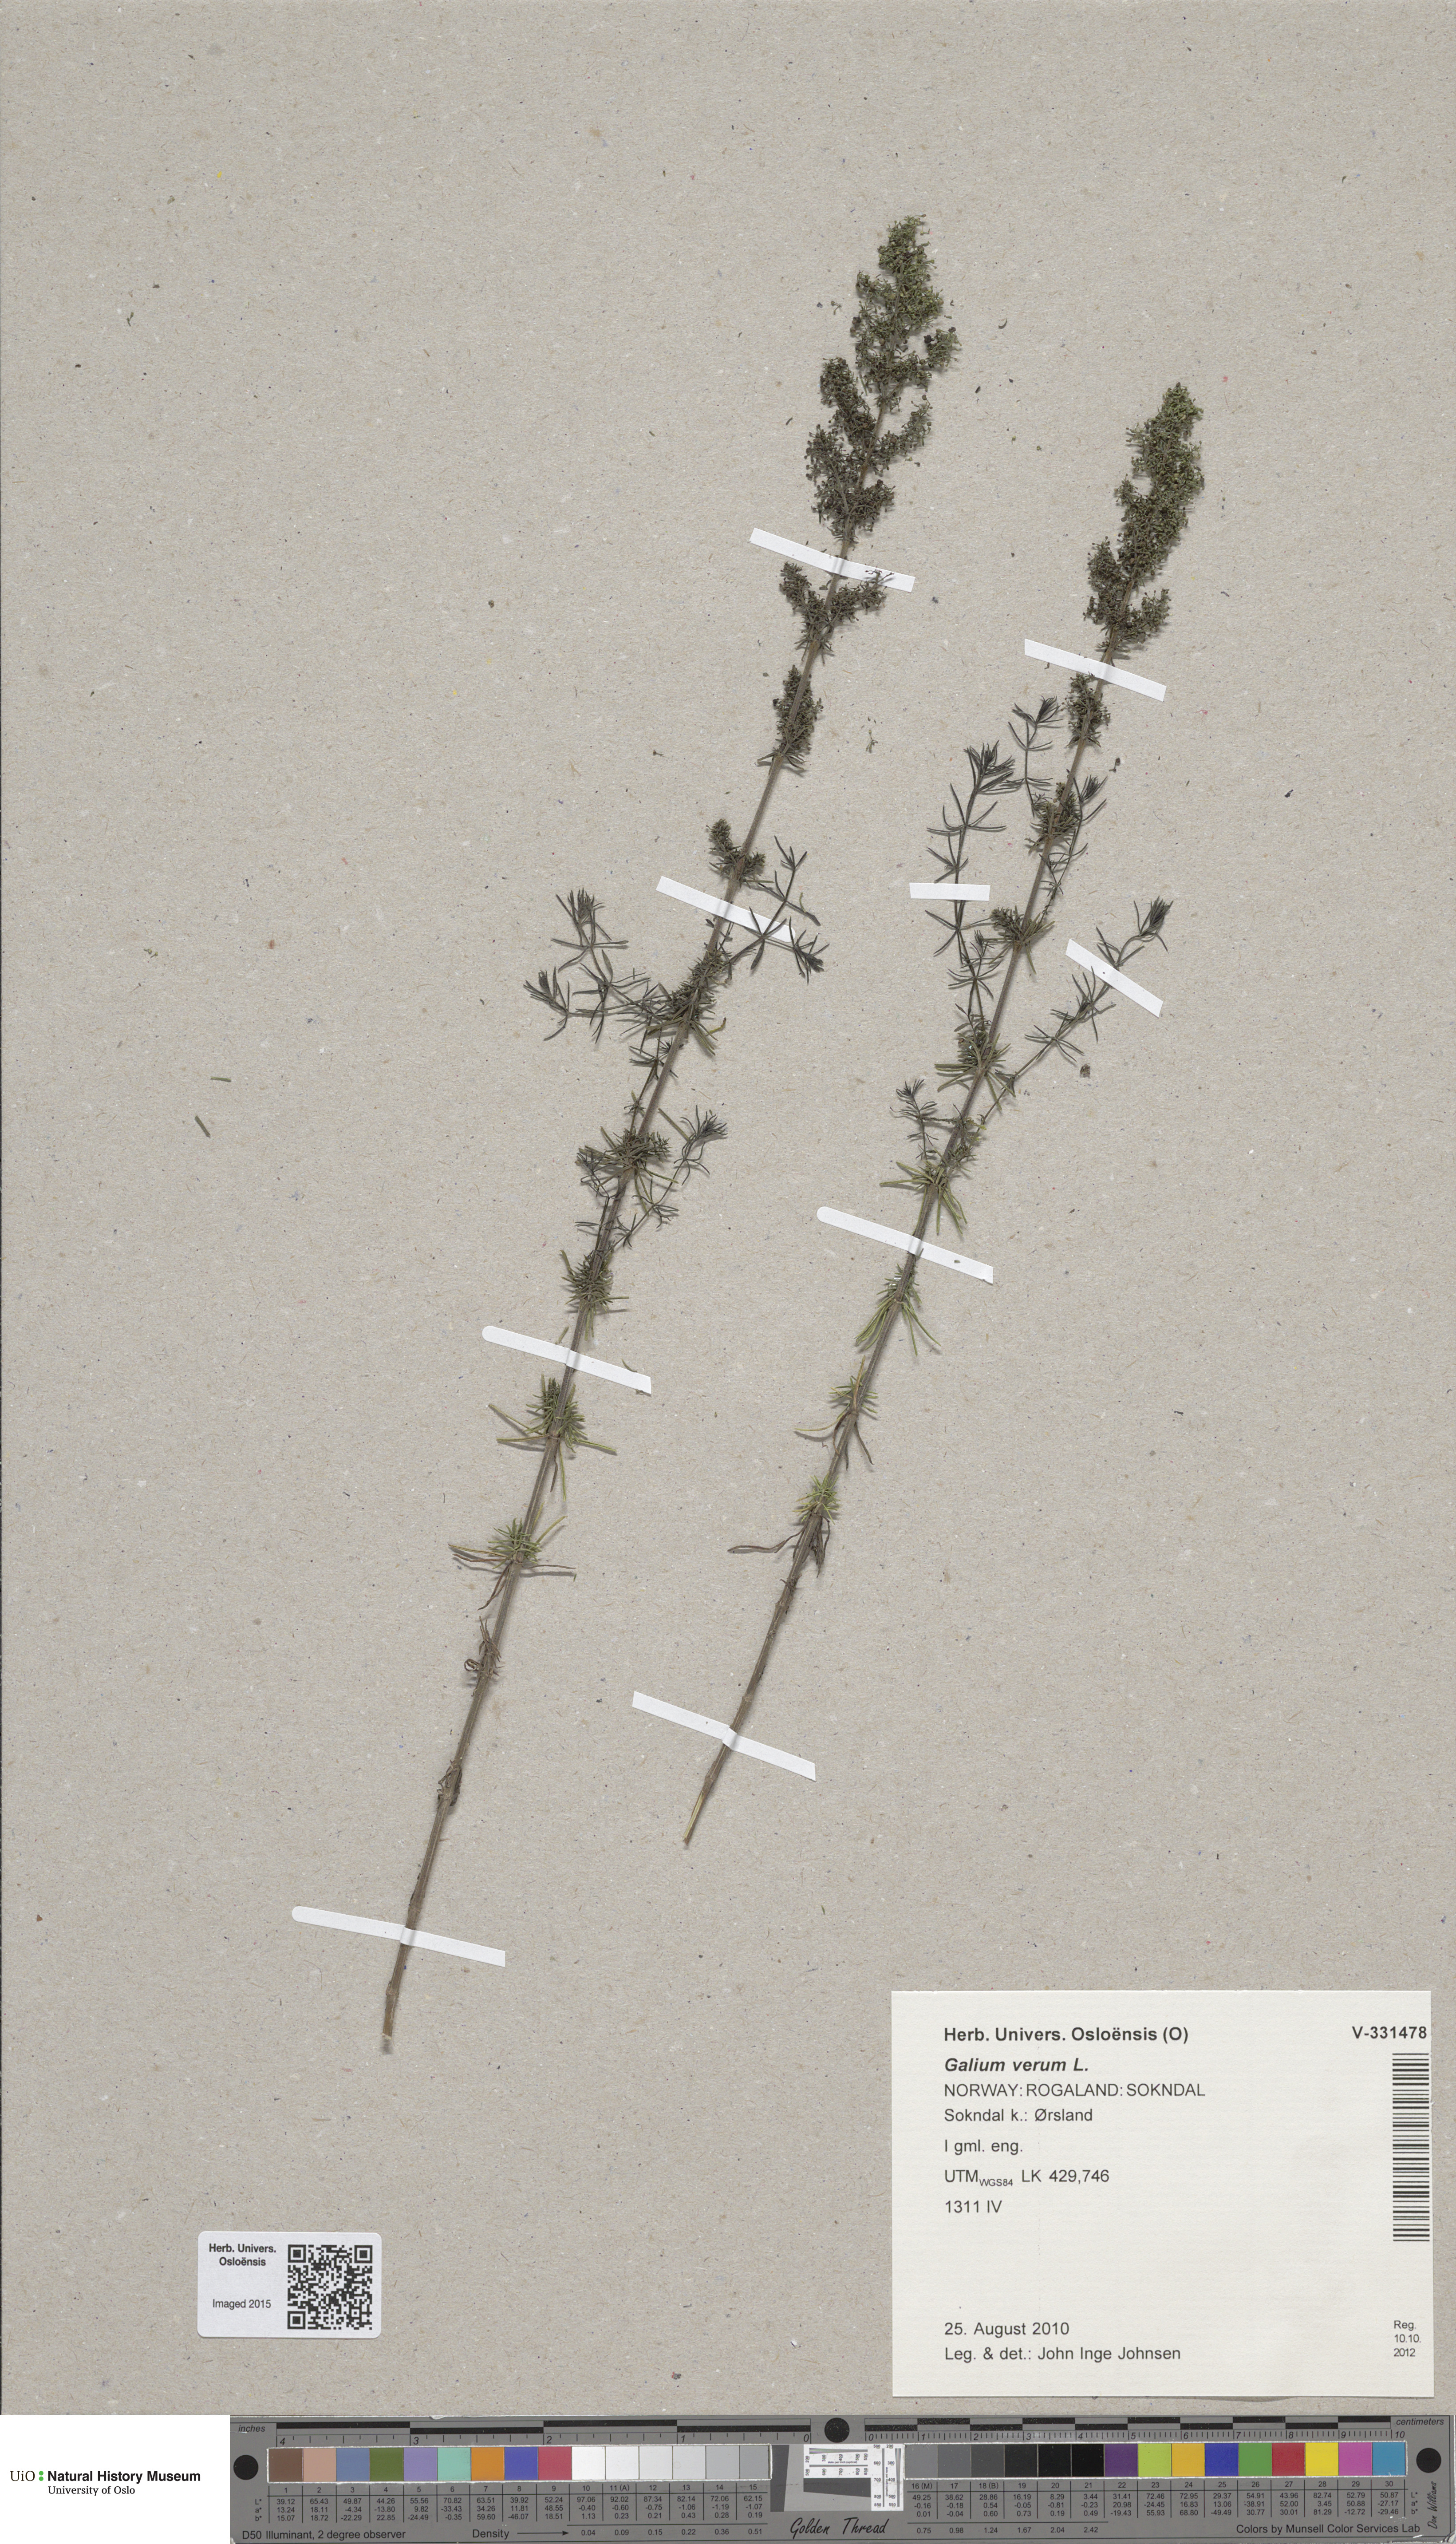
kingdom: Plantae
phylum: Tracheophyta
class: Magnoliopsida
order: Gentianales
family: Rubiaceae
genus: Galium
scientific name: Galium verum
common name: Lady's bedstraw
